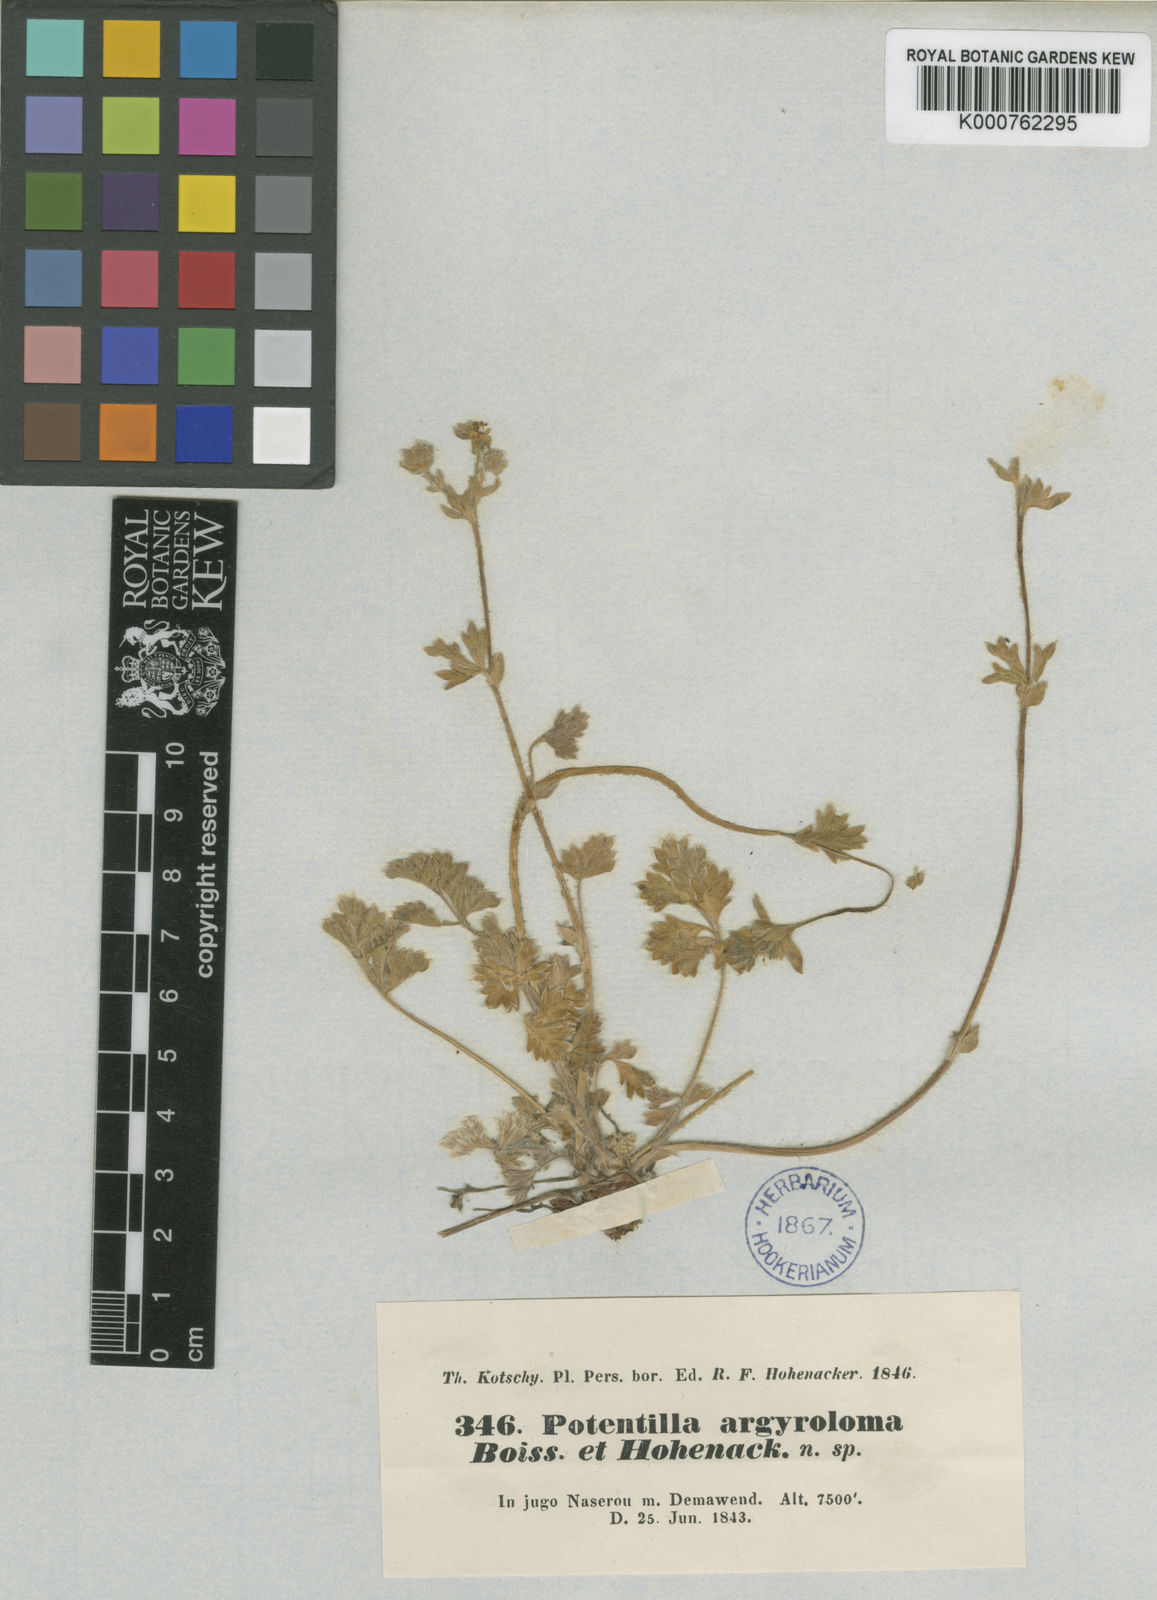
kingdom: Plantae
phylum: Tracheophyta
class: Magnoliopsida
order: Rosales
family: Rosaceae
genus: Potentilla
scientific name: Potentilla argyroloma
